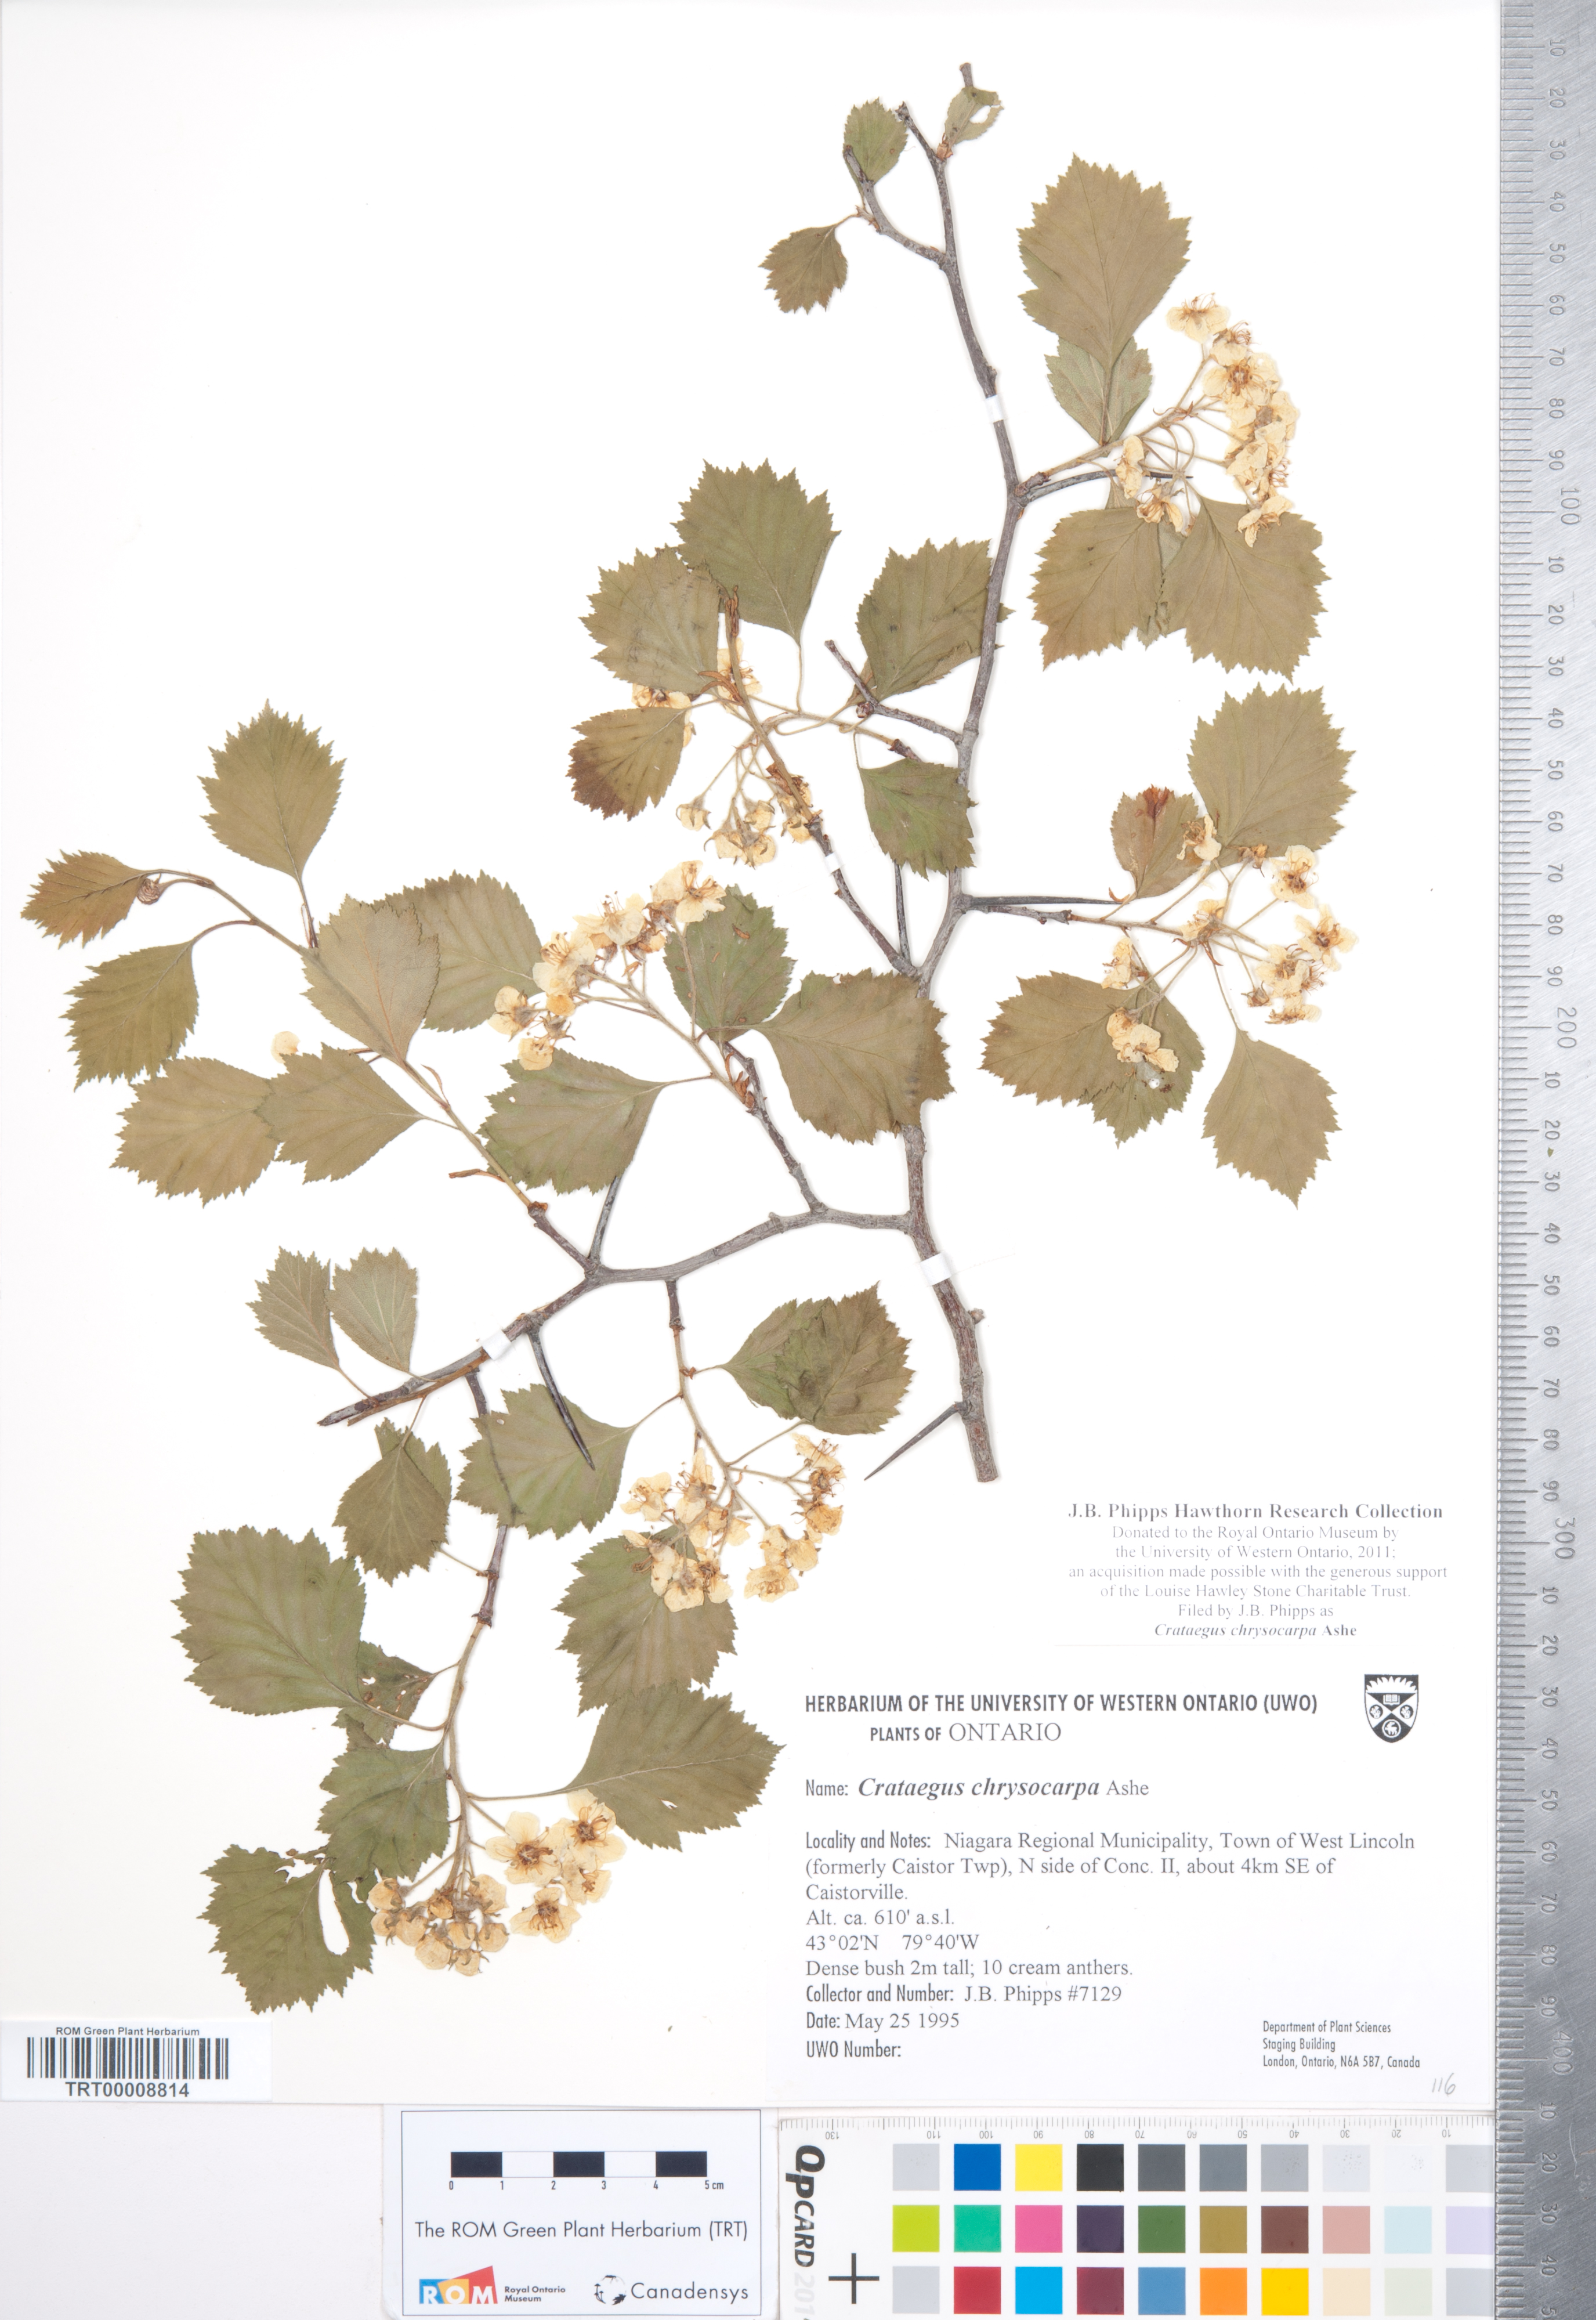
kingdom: Plantae
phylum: Tracheophyta
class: Magnoliopsida
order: Rosales
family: Rosaceae
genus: Crataegus
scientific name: Crataegus chrysocarpa
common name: Fire-berry hawthorn
